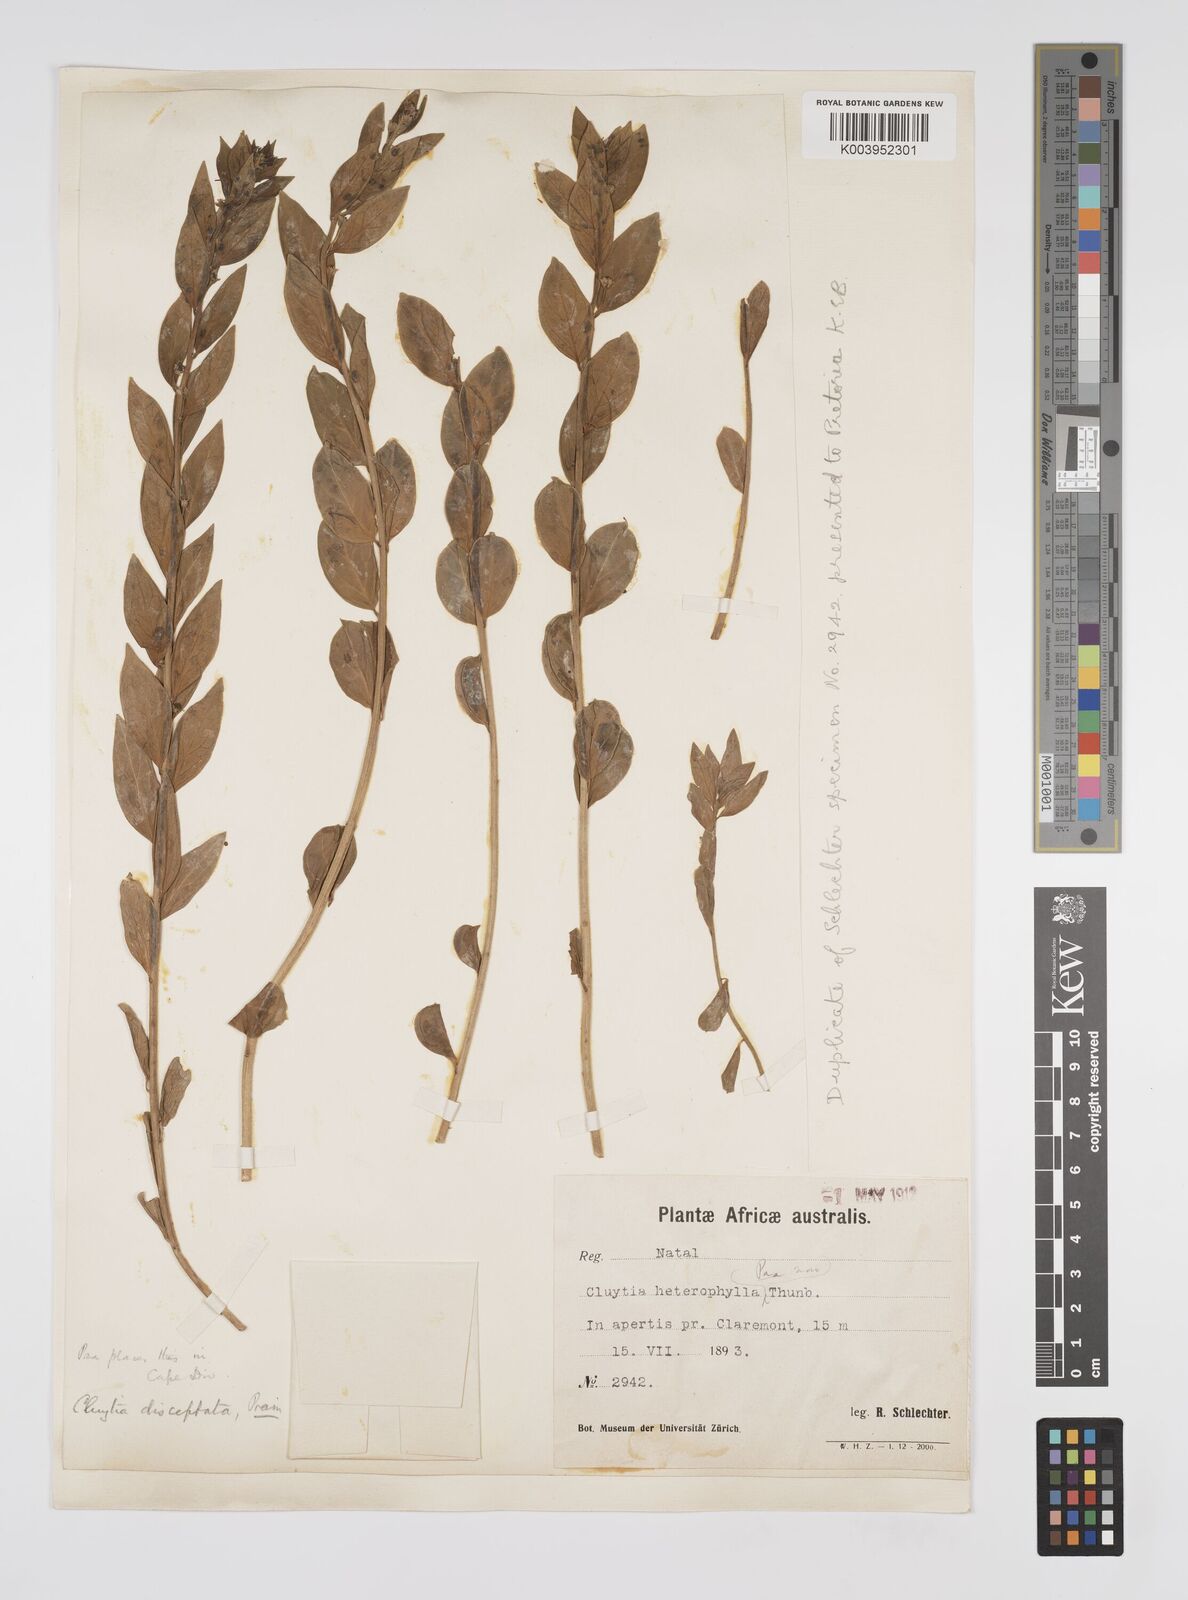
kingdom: Plantae
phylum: Tracheophyta
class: Magnoliopsida
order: Malpighiales
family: Peraceae
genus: Clutia
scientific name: Clutia disceptata
